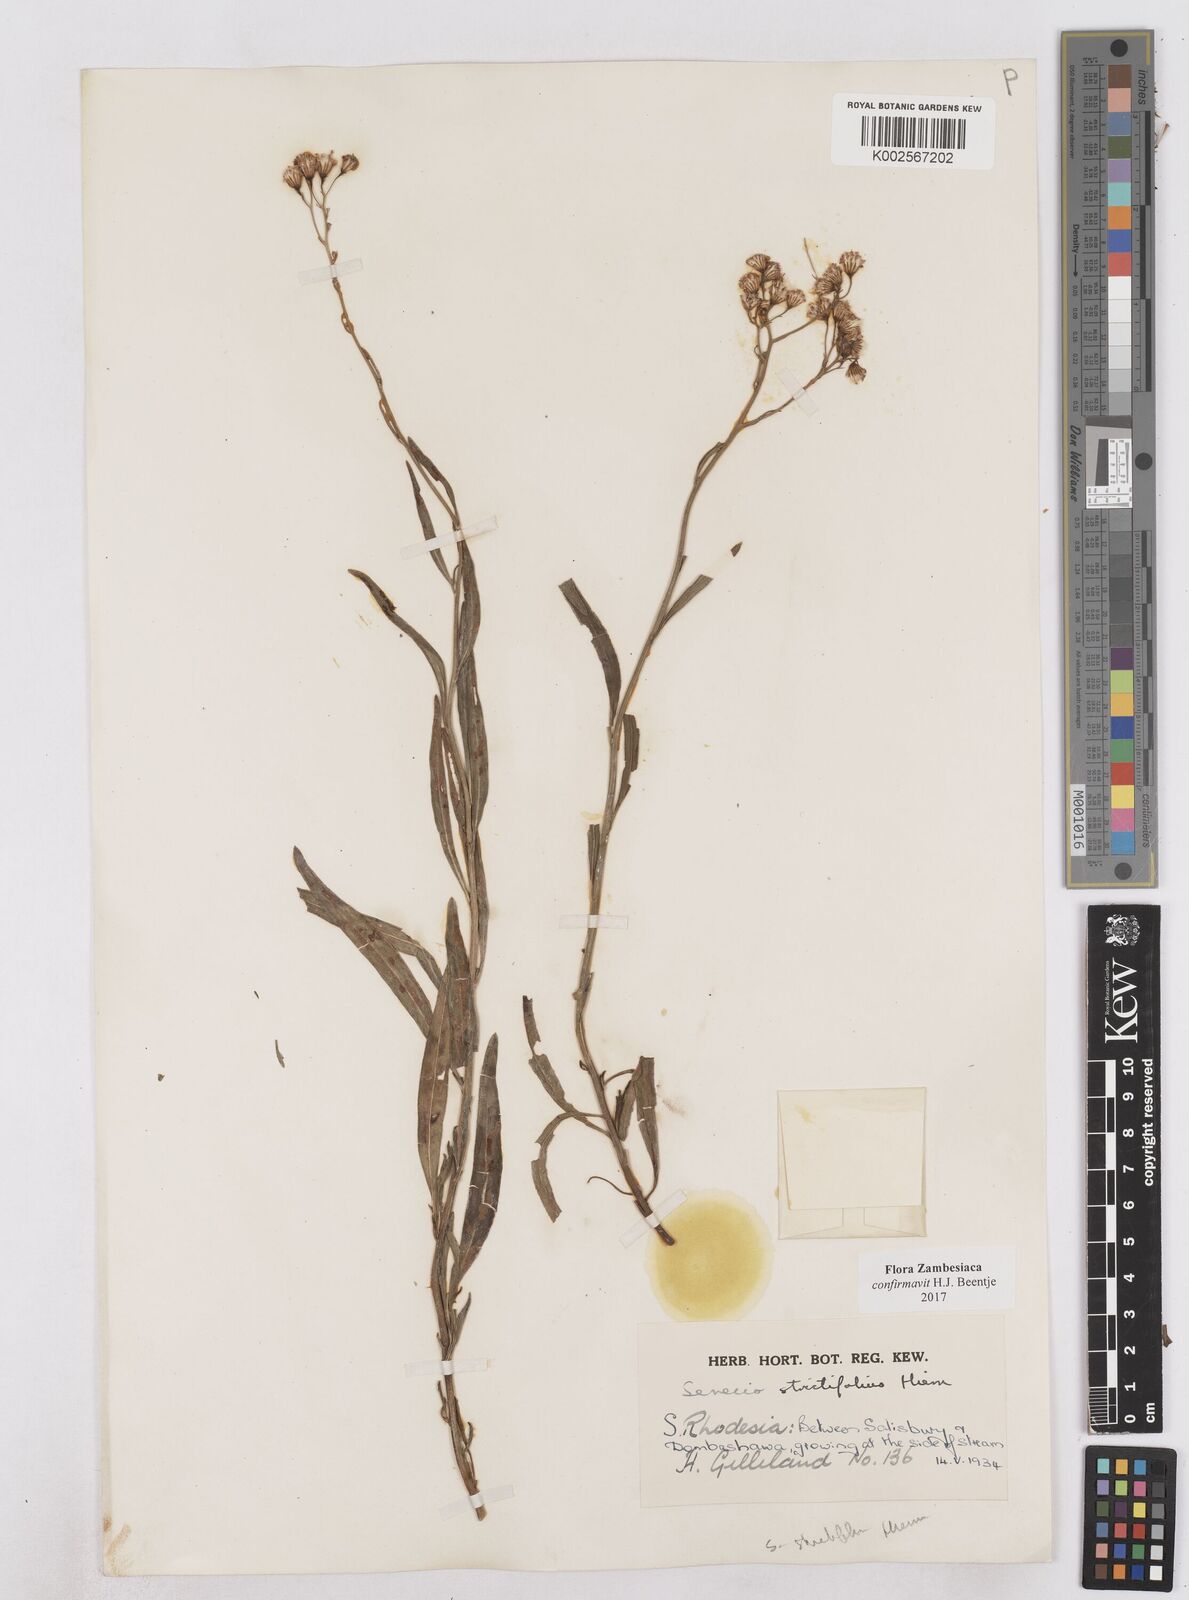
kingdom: Plantae
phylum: Tracheophyta
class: Magnoliopsida
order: Asterales
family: Asteraceae
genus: Senecio
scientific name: Senecio strictifolius
